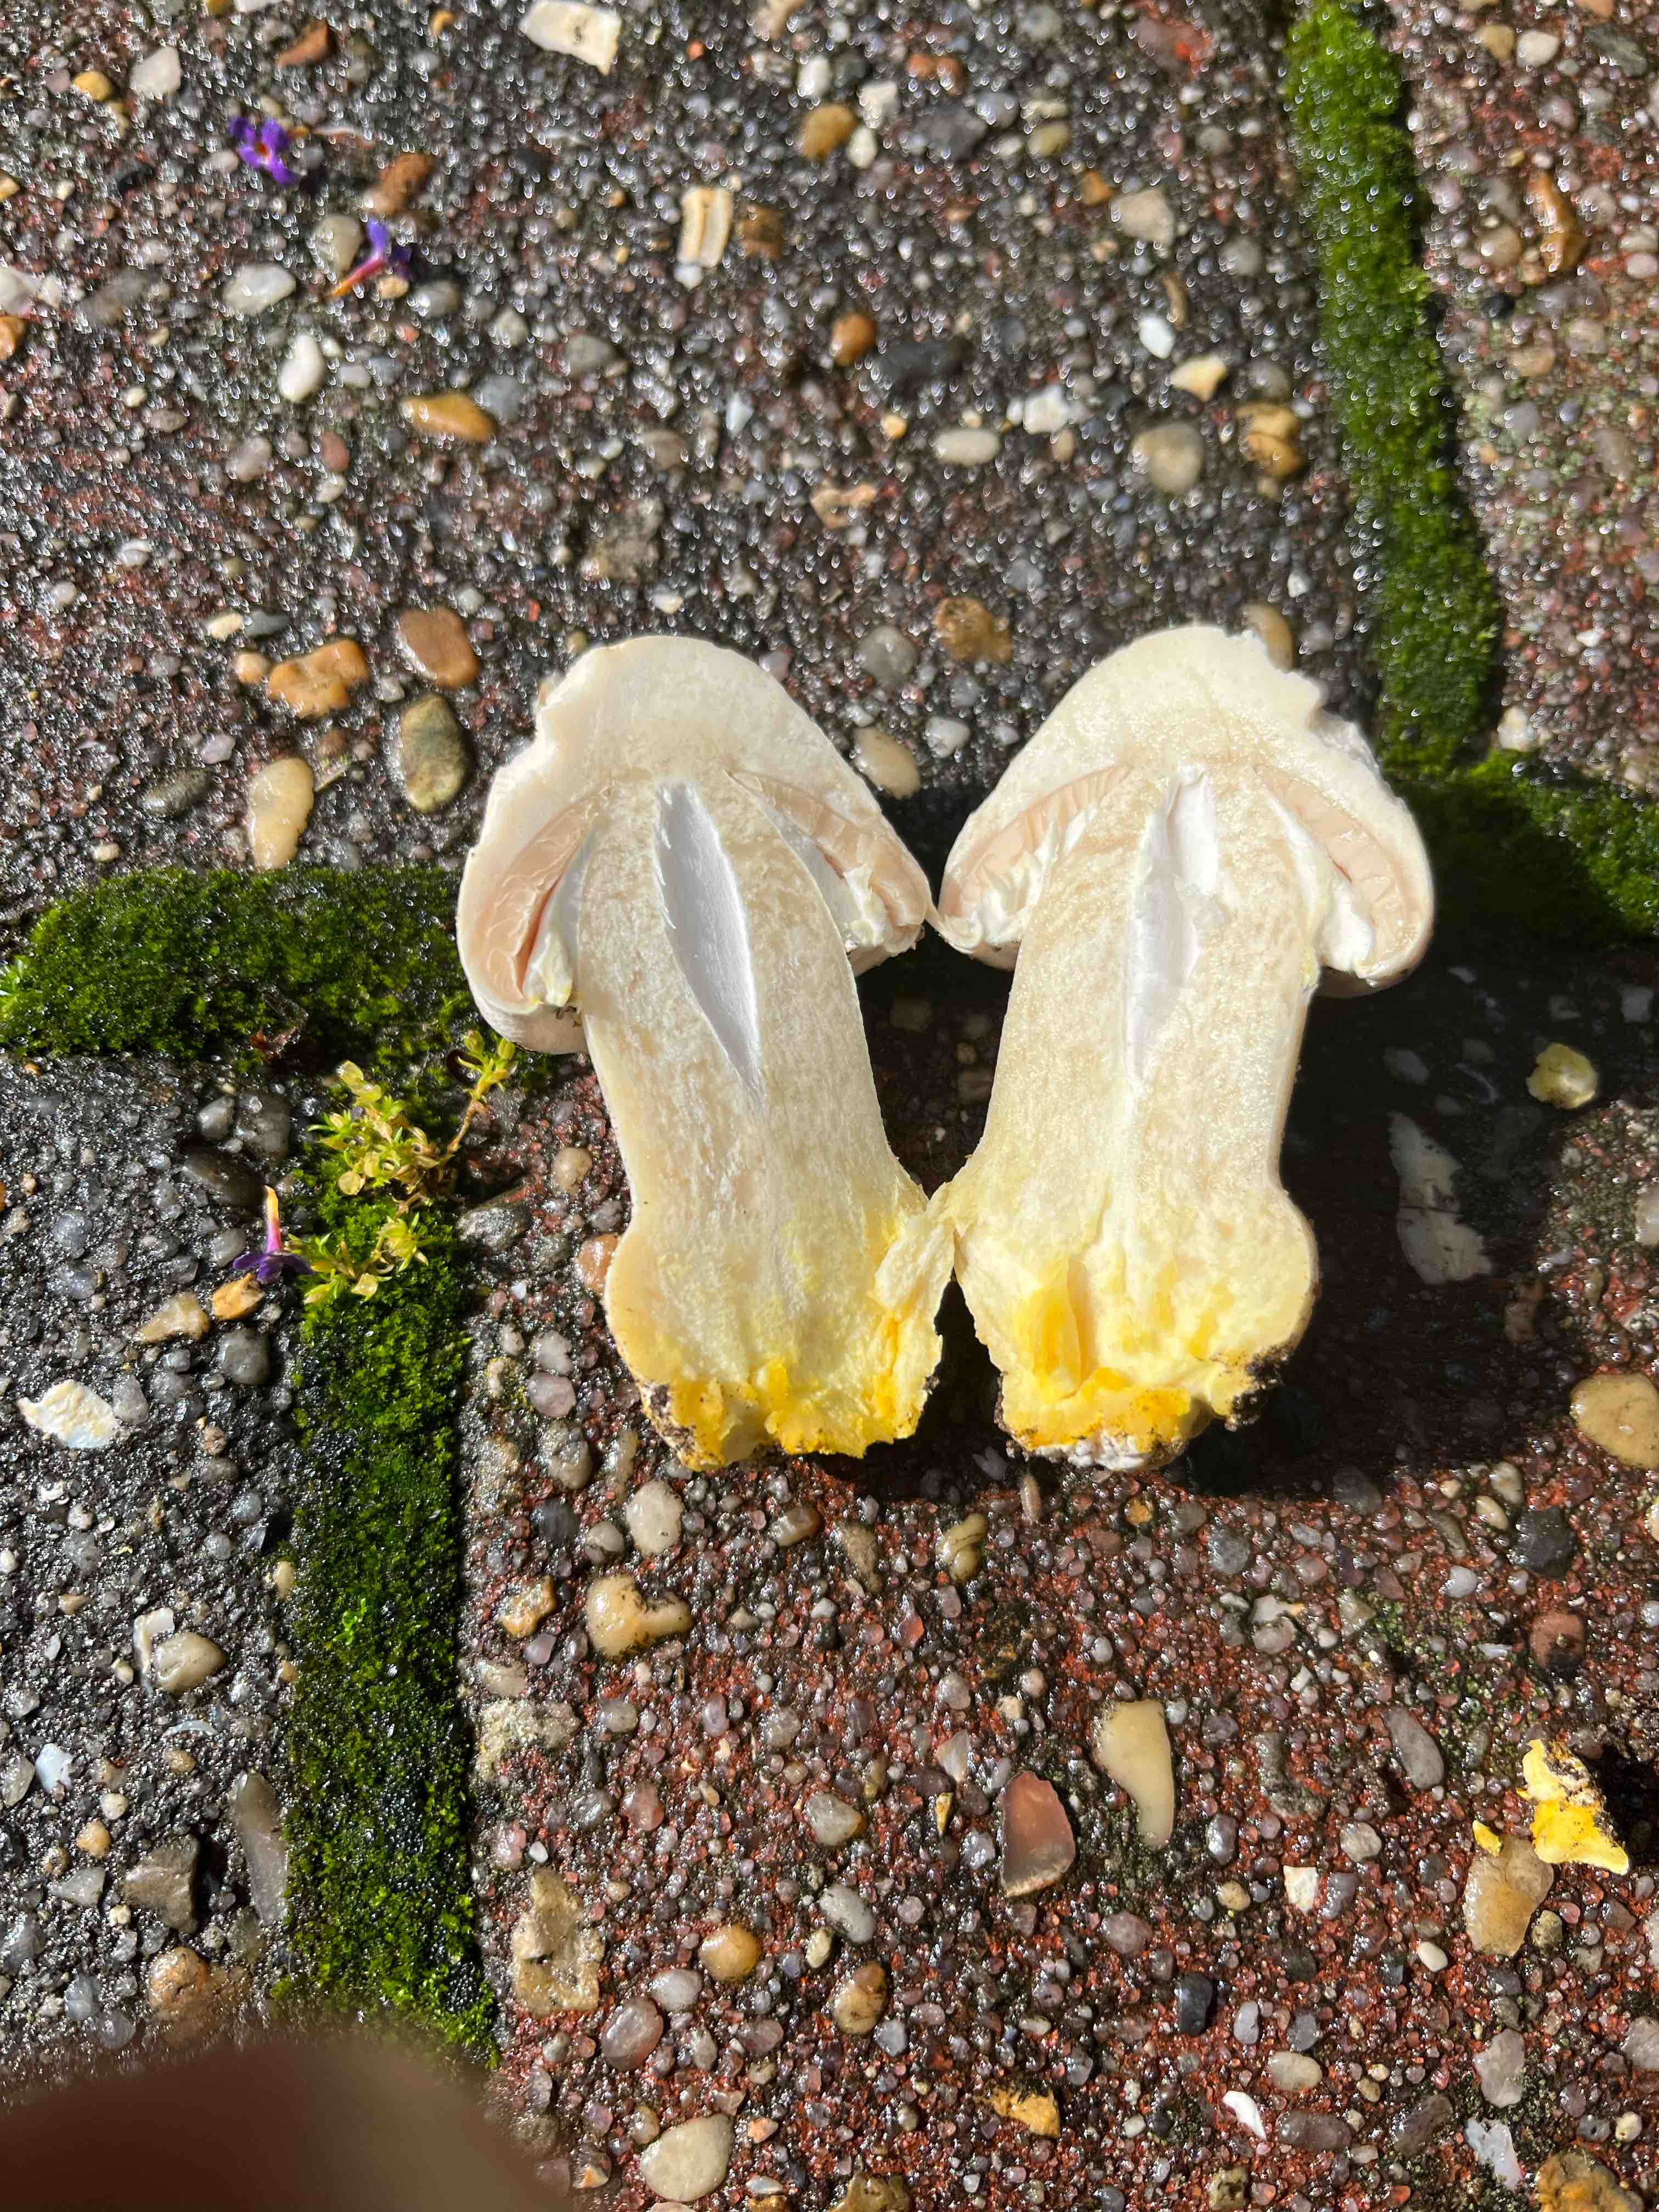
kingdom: Fungi
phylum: Basidiomycota
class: Agaricomycetes
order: Agaricales
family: Agaricaceae
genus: Agaricus
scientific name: Agaricus xanthodermus
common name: karbol-champignon
